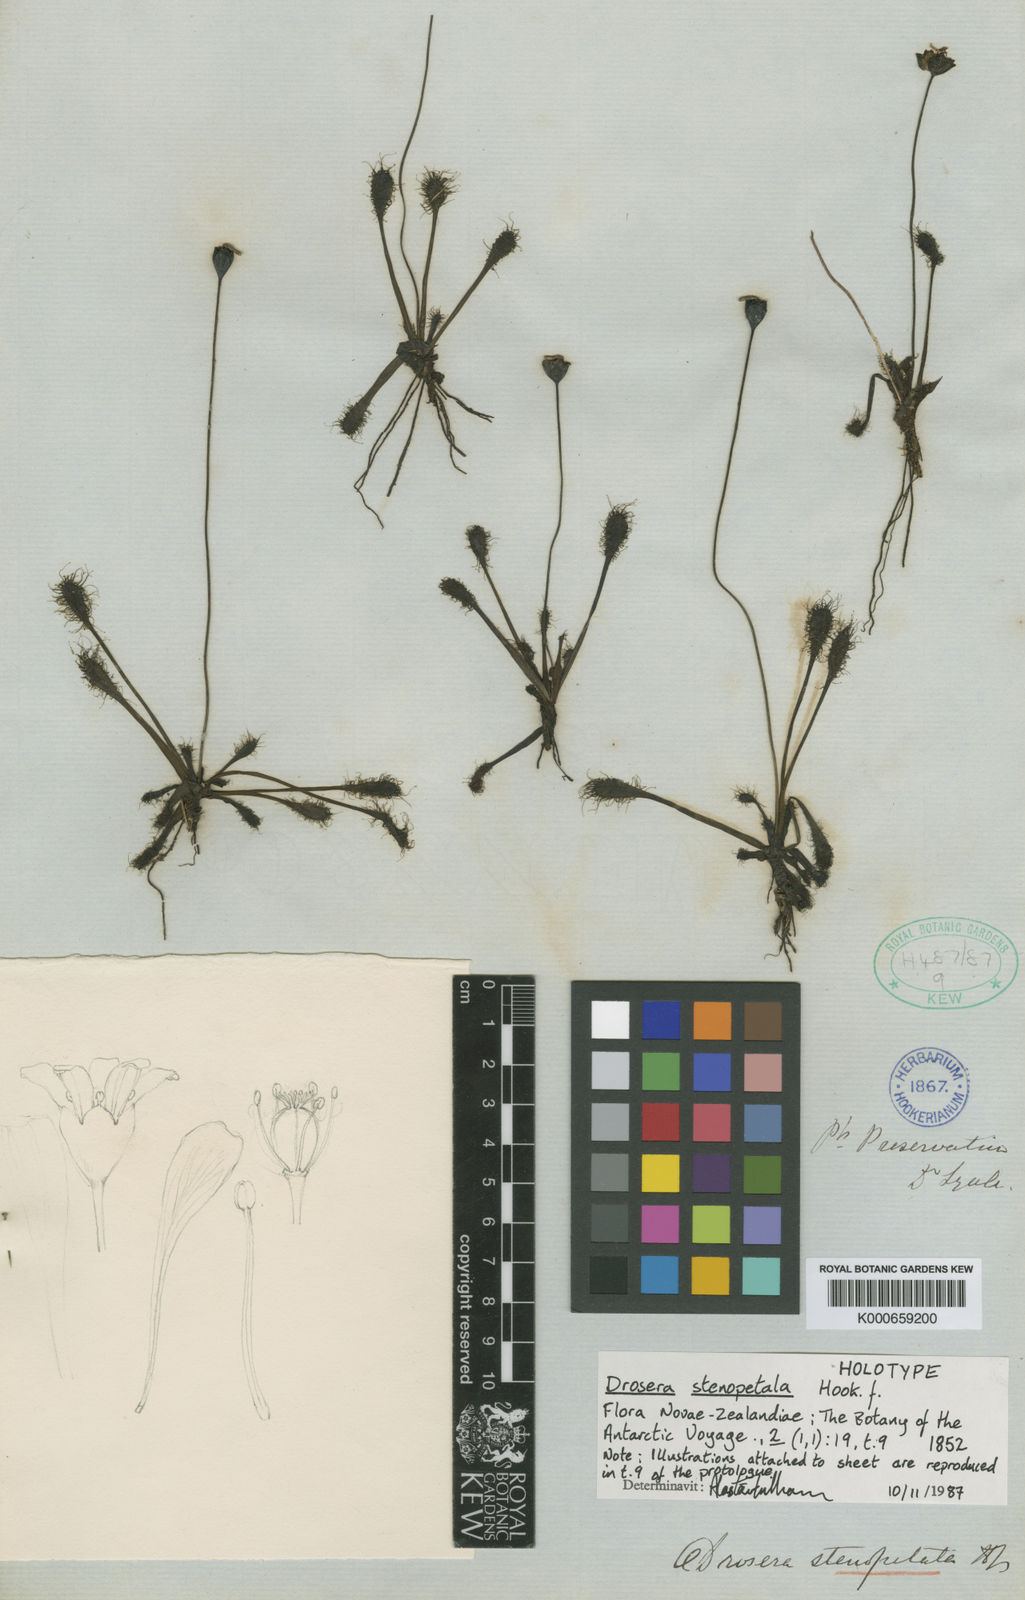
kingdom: Plantae
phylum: Tracheophyta
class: Magnoliopsida
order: Caryophyllales
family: Droseraceae
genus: Drosera
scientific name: Drosera stenopetala
